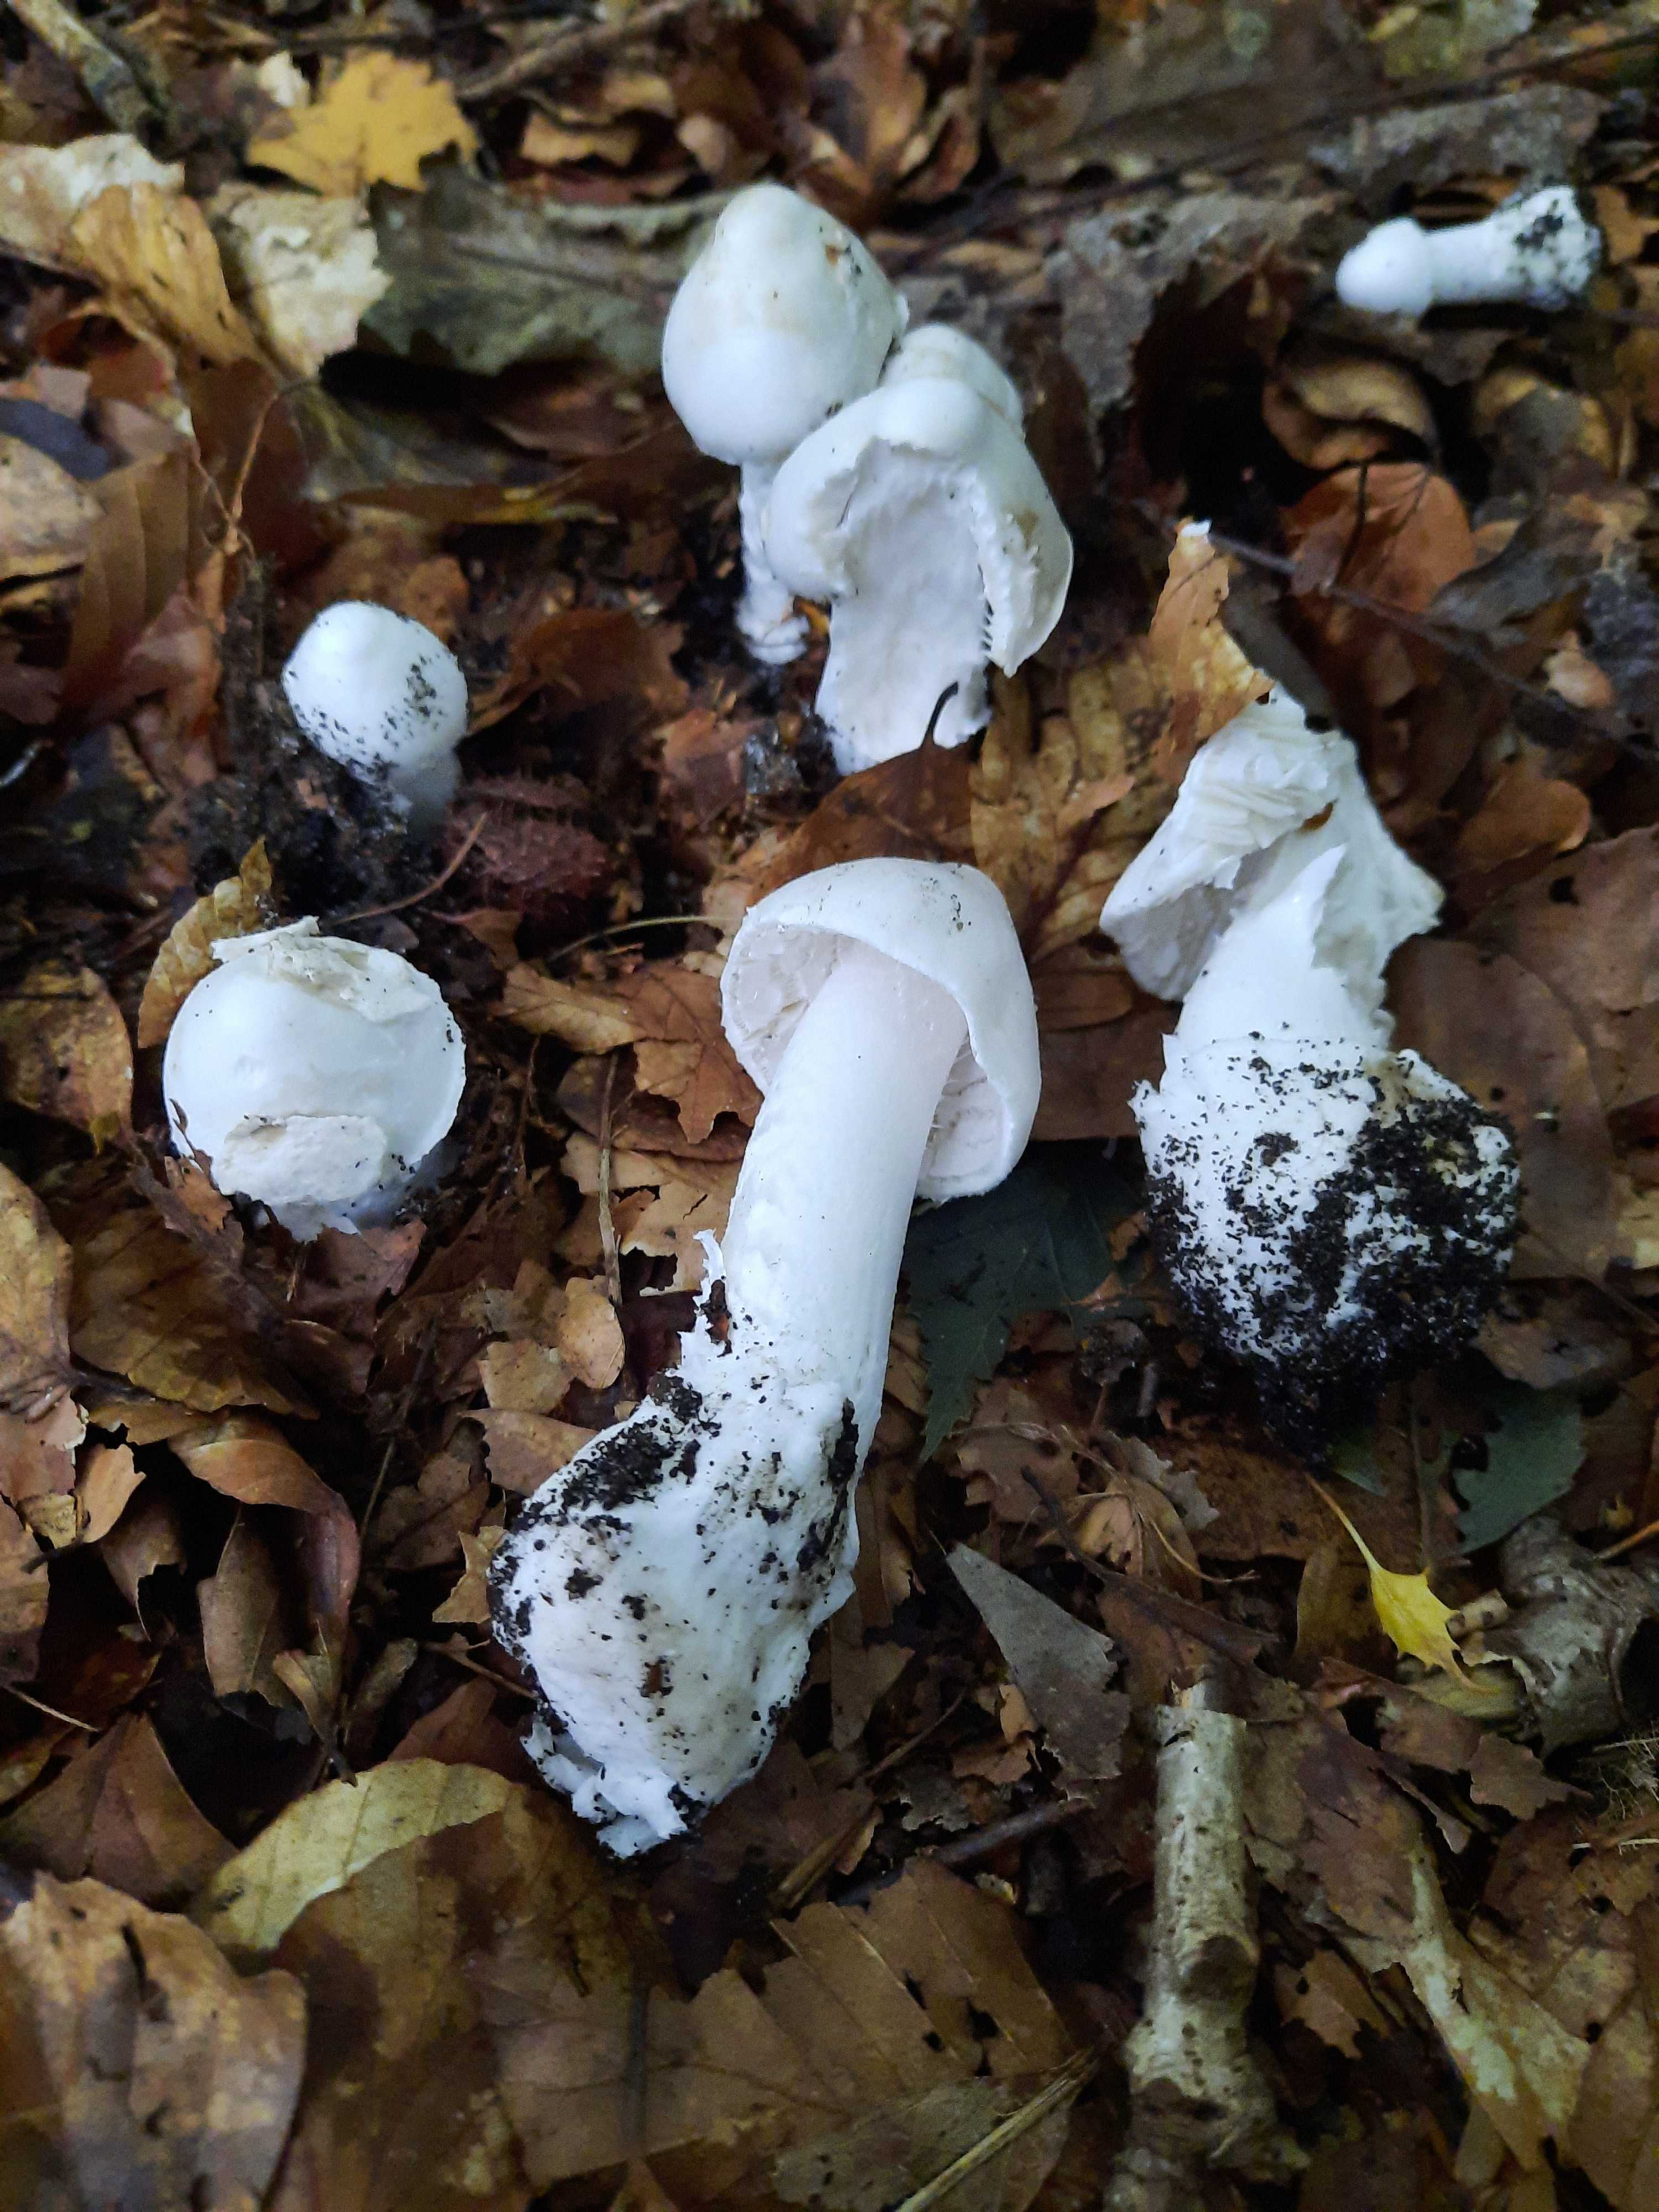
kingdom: Fungi
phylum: Basidiomycota
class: Agaricomycetes
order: Agaricales
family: Amanitaceae
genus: Amanita
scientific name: Amanita virosa
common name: snehvid fluesvamp
